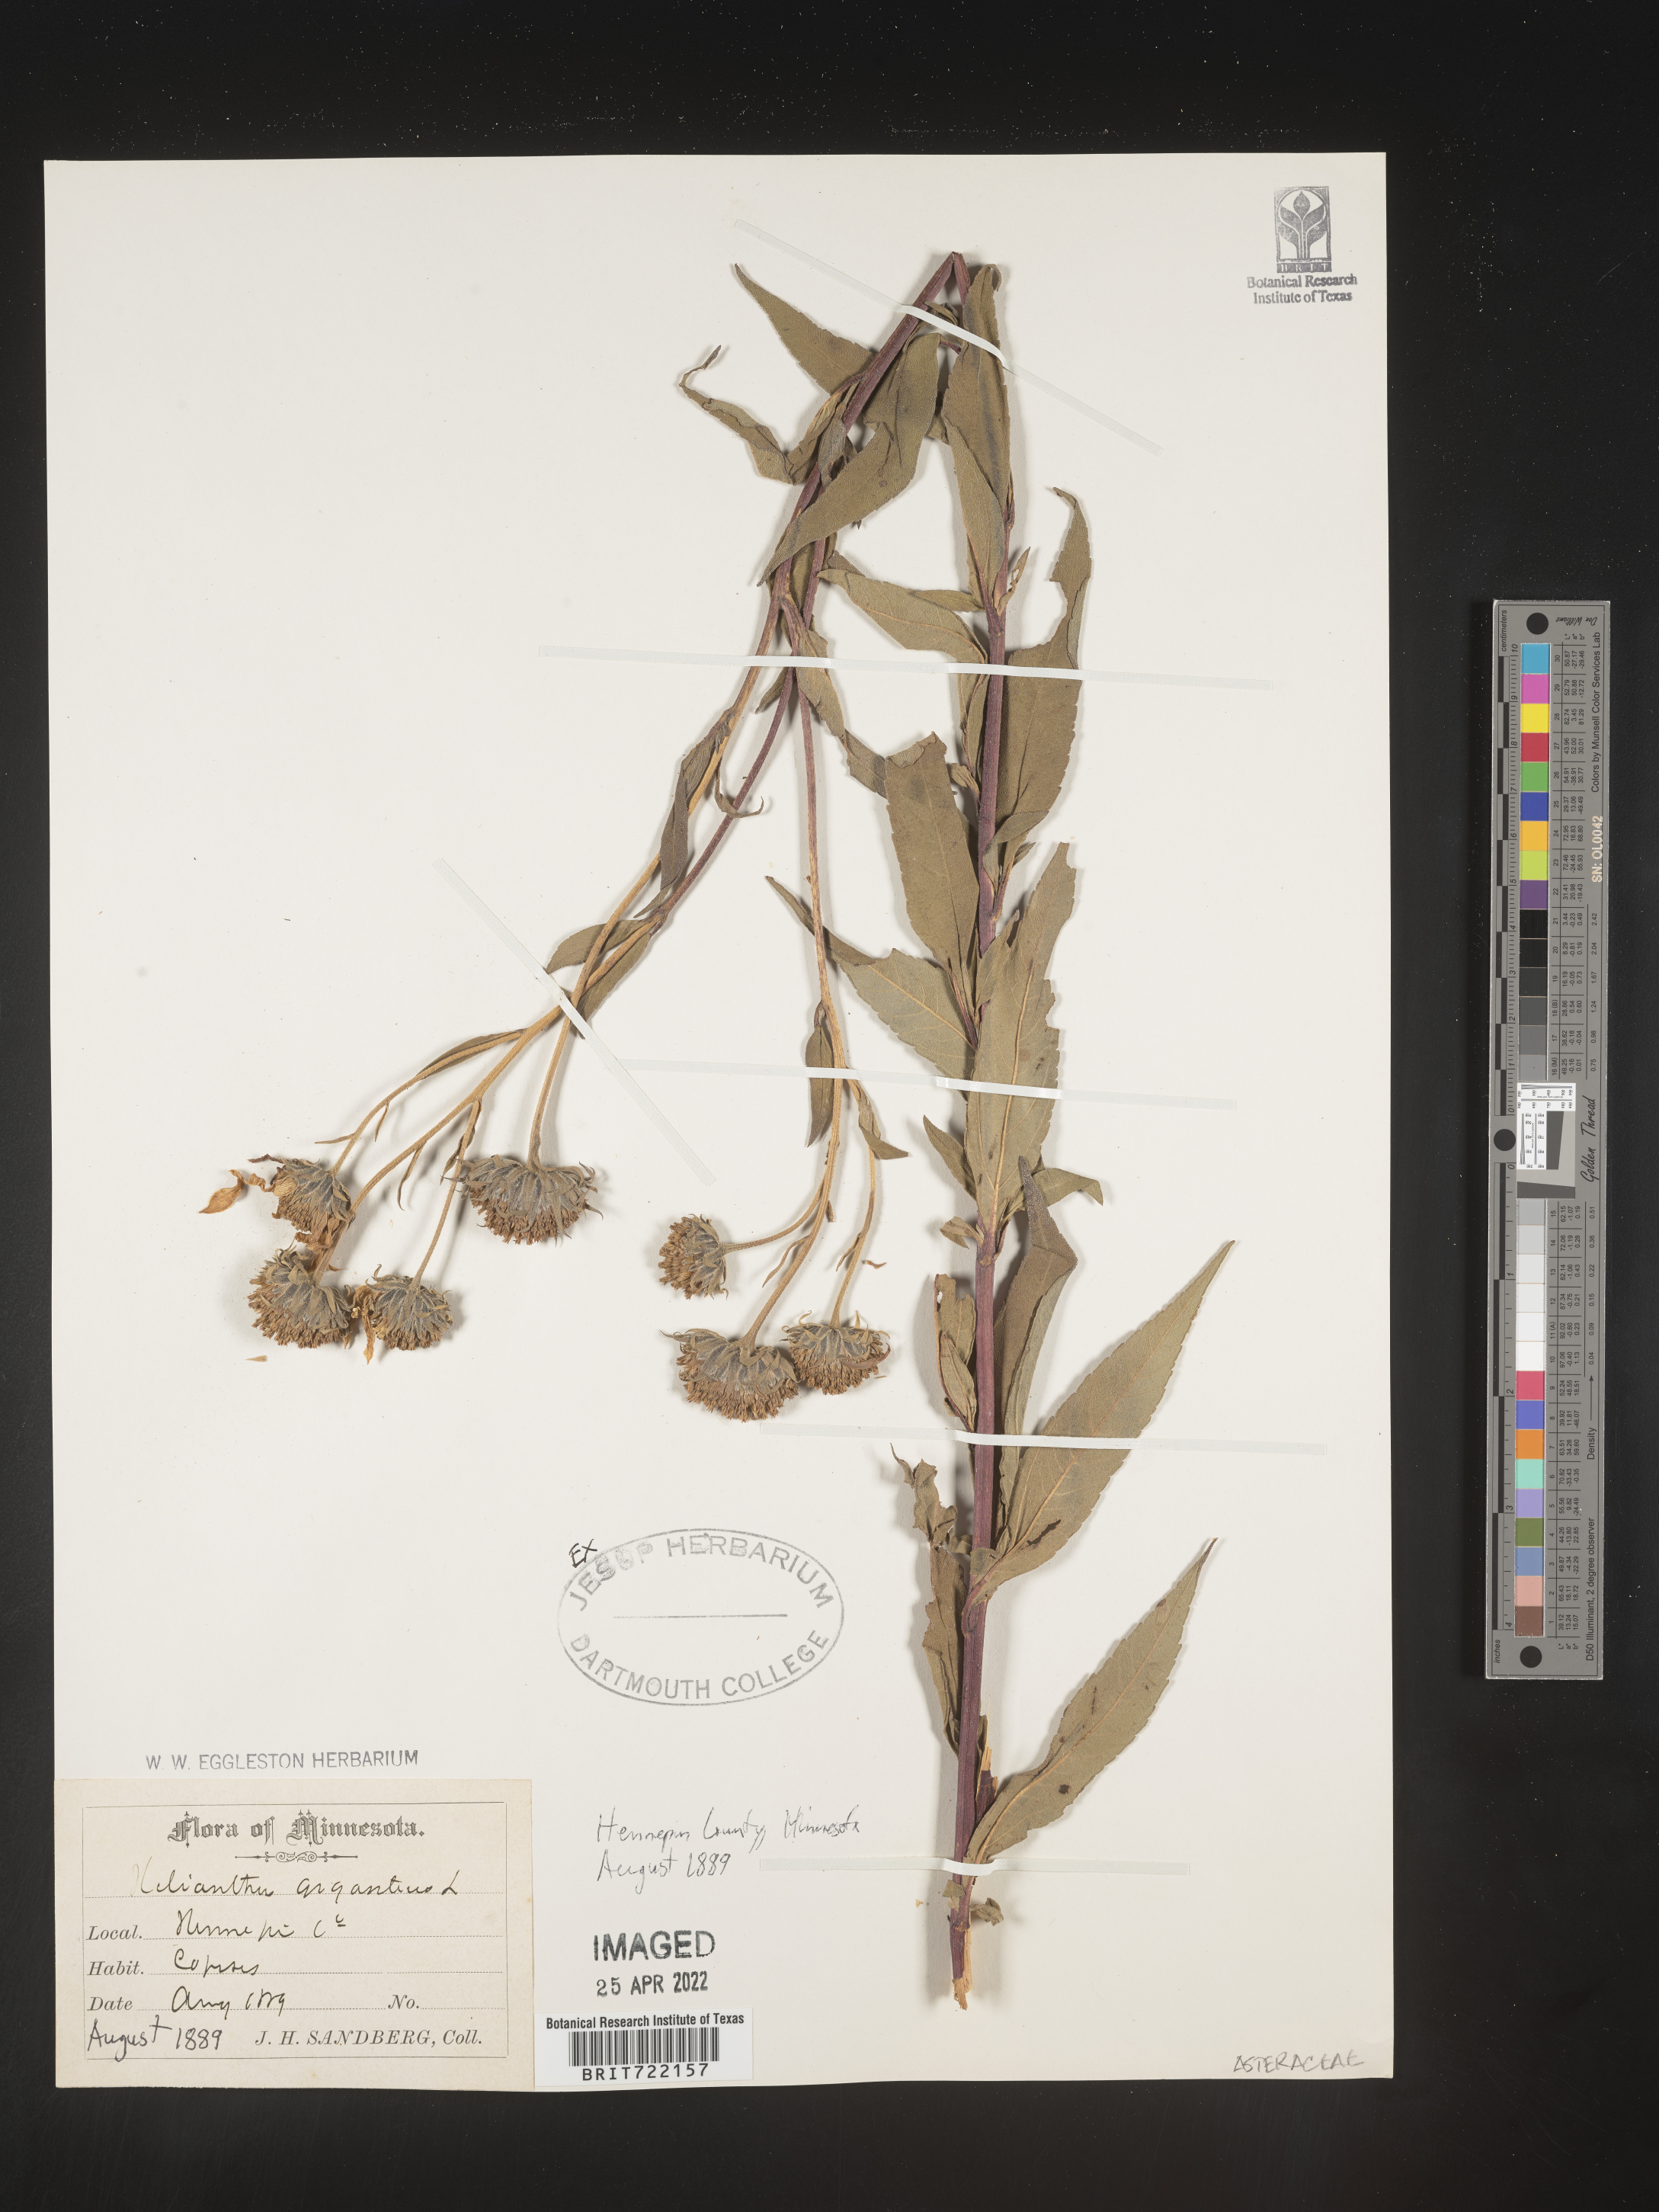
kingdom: Plantae
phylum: Tracheophyta
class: Magnoliopsida
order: Asterales
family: Asteraceae
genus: Helianthus
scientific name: Helianthus giganteus
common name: Giant sunflower
